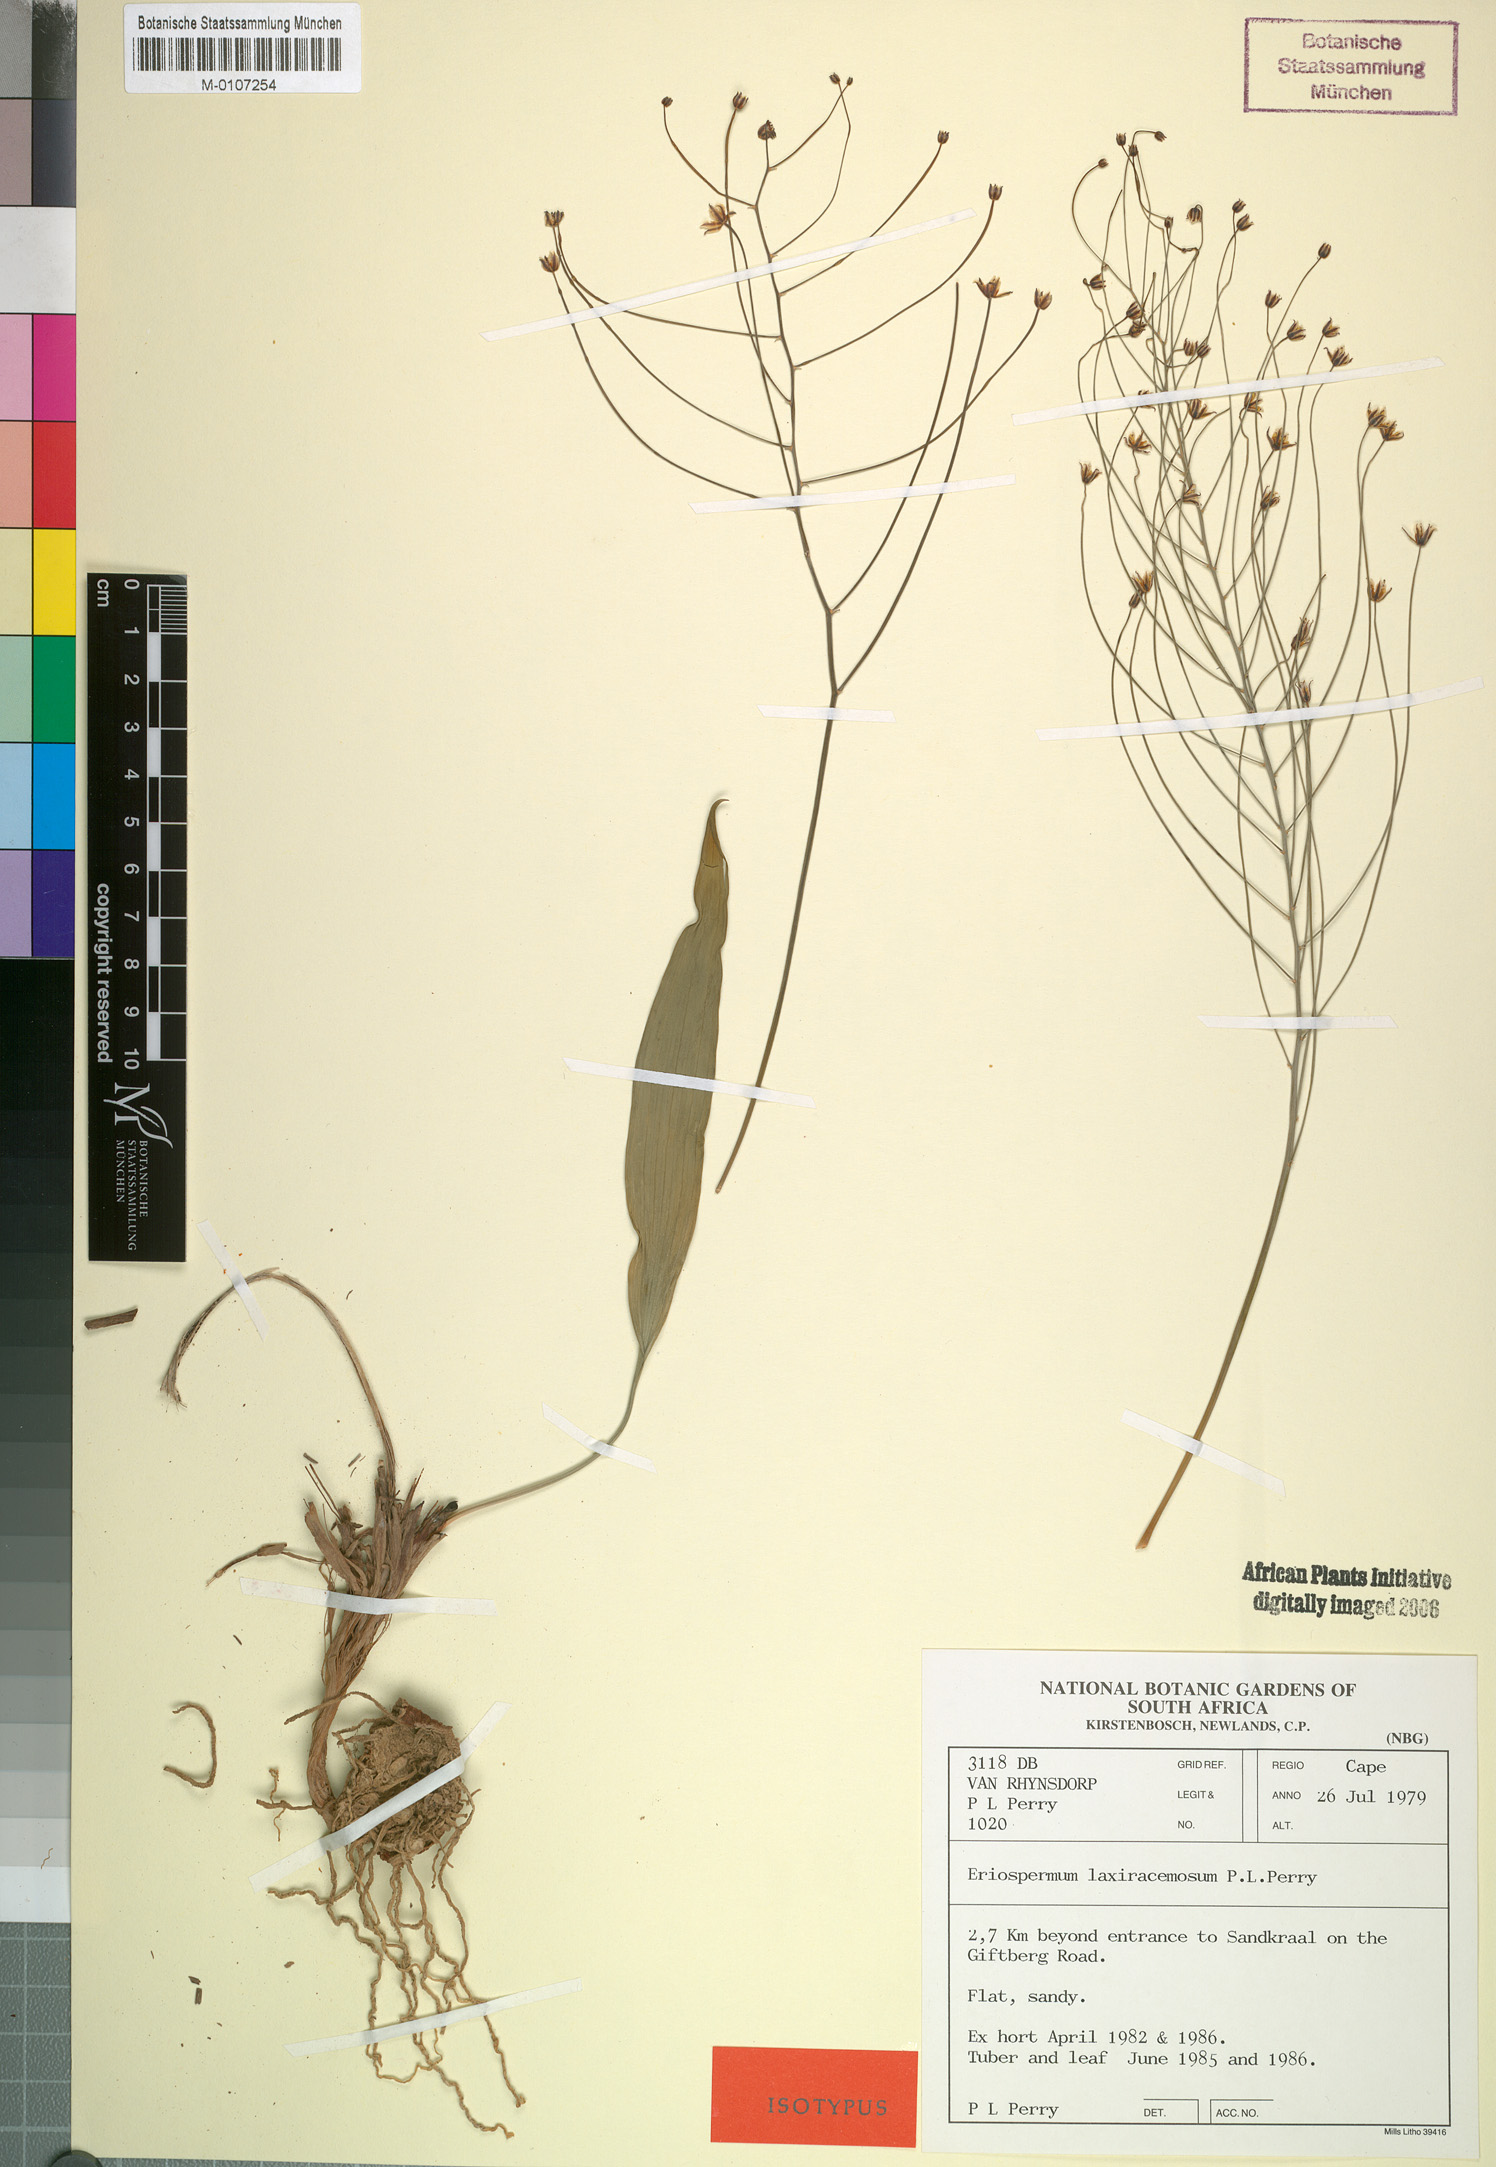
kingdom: Plantae
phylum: Tracheophyta
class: Liliopsida
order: Asparagales
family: Asparagaceae
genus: Eriospermum
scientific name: Eriospermum laxiracemosum
